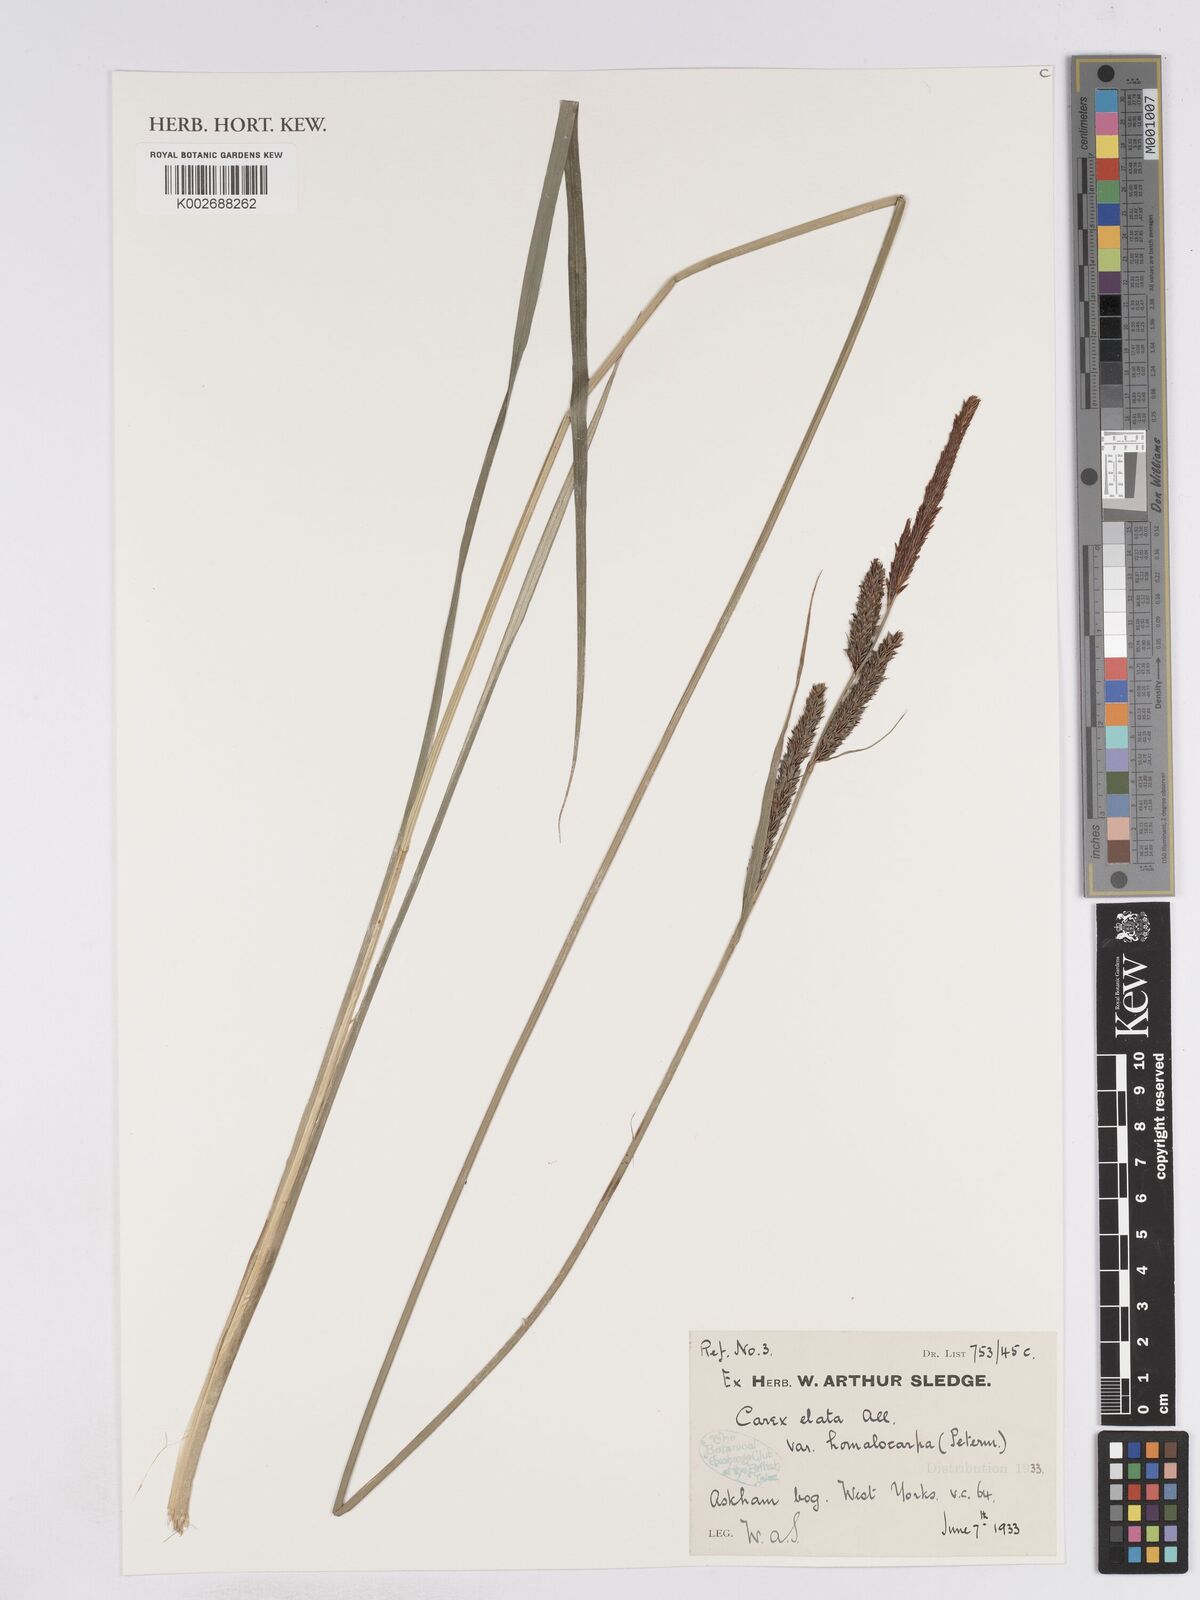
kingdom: Plantae
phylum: Tracheophyta
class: Liliopsida
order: Poales
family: Cyperaceae
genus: Carex
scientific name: Carex elata
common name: Tufted sedge
